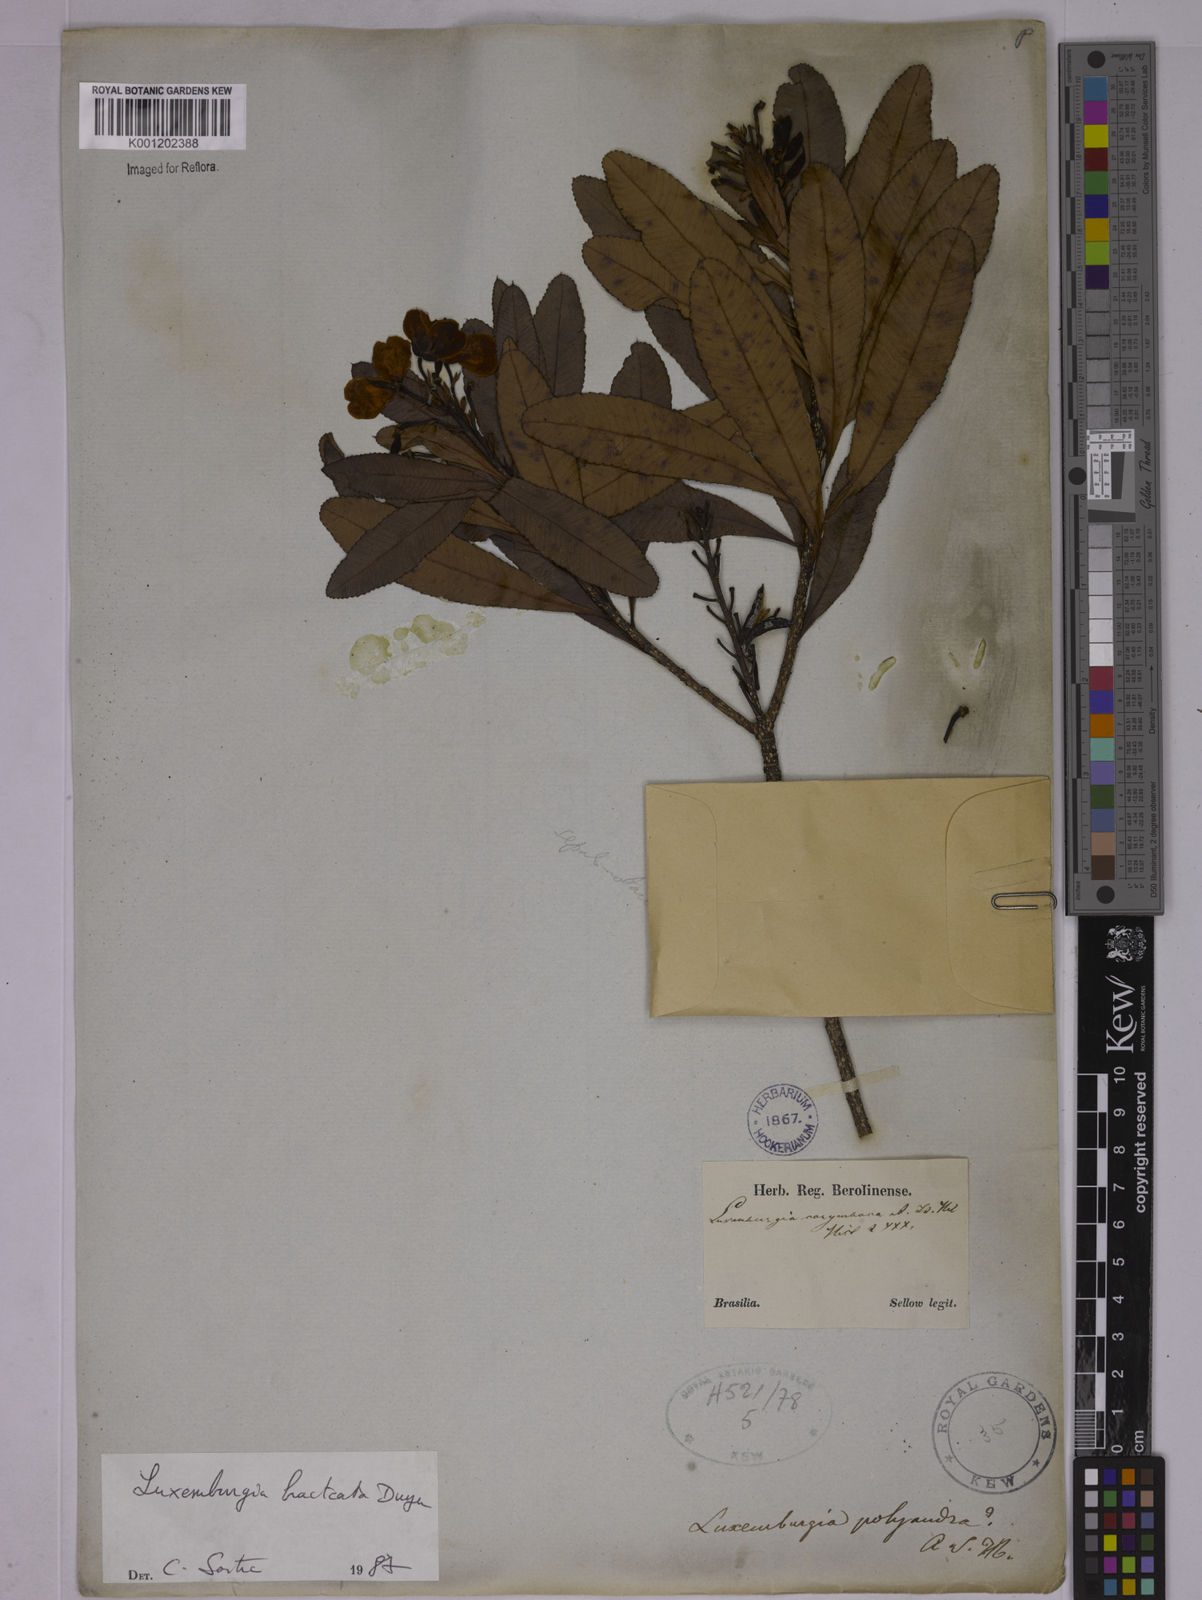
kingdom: Plantae
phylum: Tracheophyta
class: Magnoliopsida
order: Malpighiales
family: Ochnaceae
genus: Luxemburgia
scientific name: Luxemburgia bracteata
